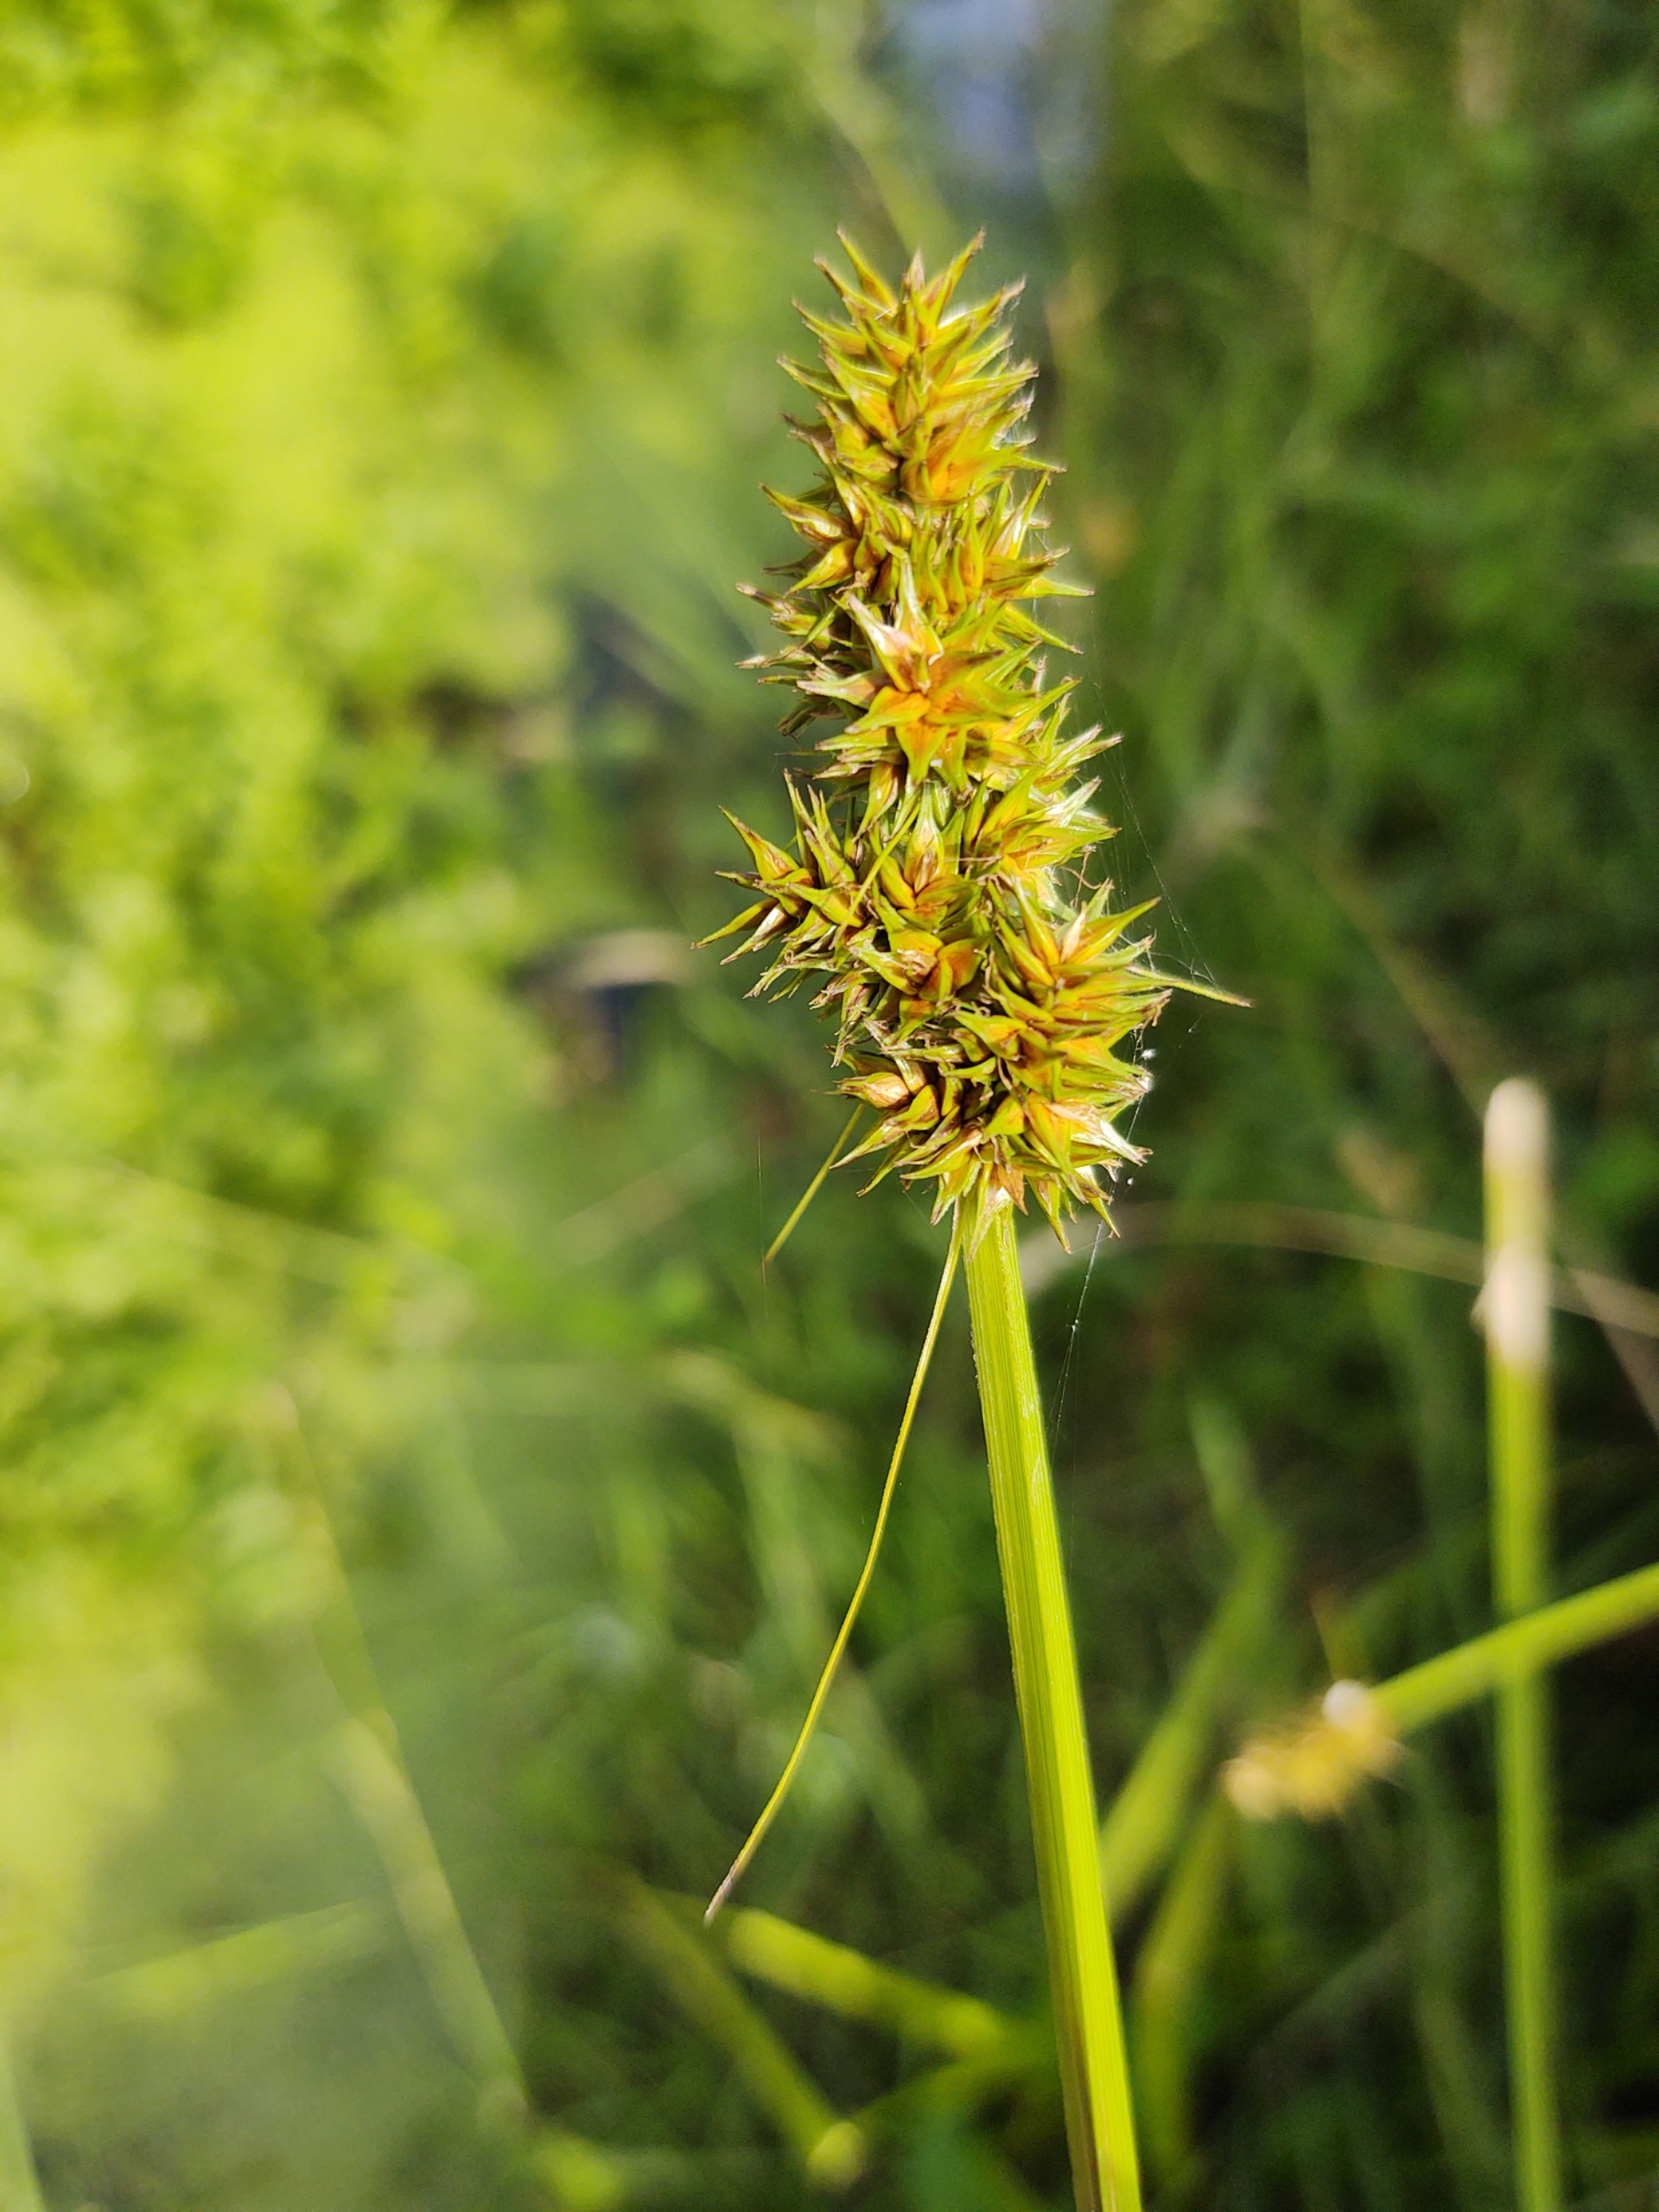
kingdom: Plantae
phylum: Tracheophyta
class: Liliopsida
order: Poales
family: Cyperaceae
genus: Carex
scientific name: Carex otrubae
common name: Sylt-star
